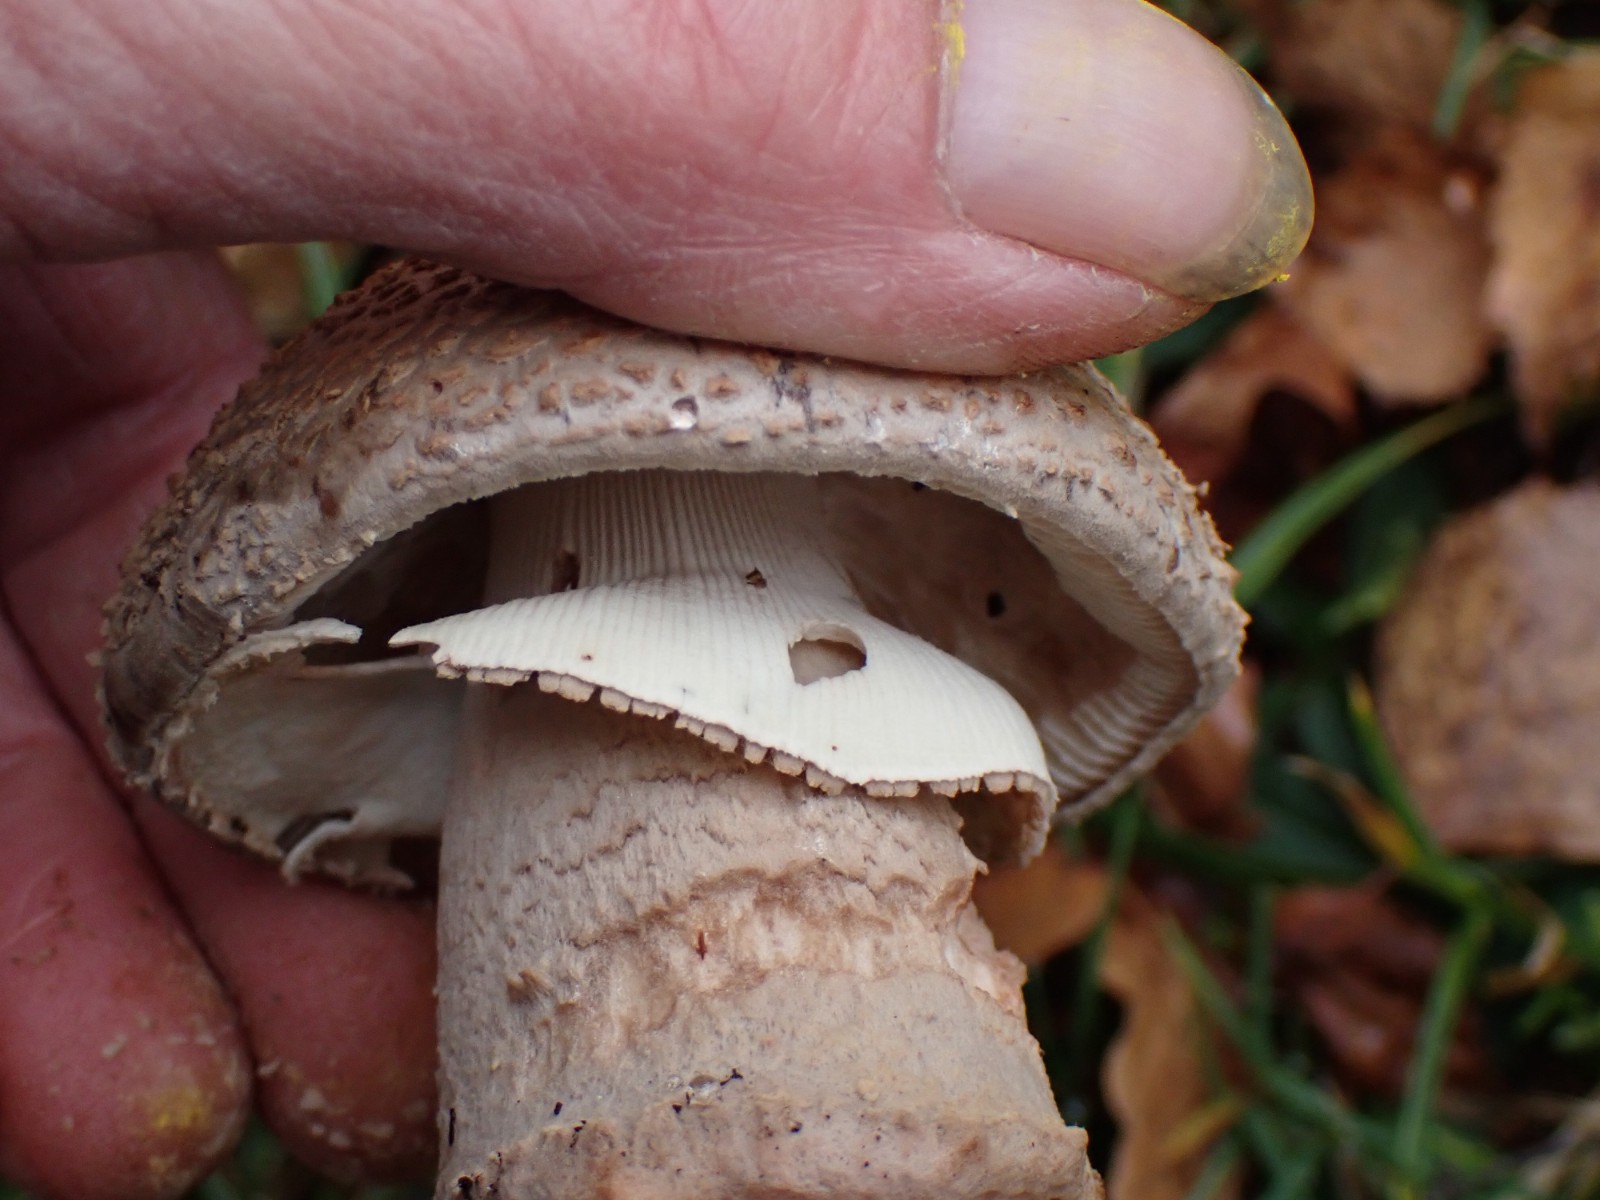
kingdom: Fungi
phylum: Basidiomycota
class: Agaricomycetes
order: Agaricales
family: Amanitaceae
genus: Amanita
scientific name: Amanita rubescens
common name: rødmende fluesvamp
